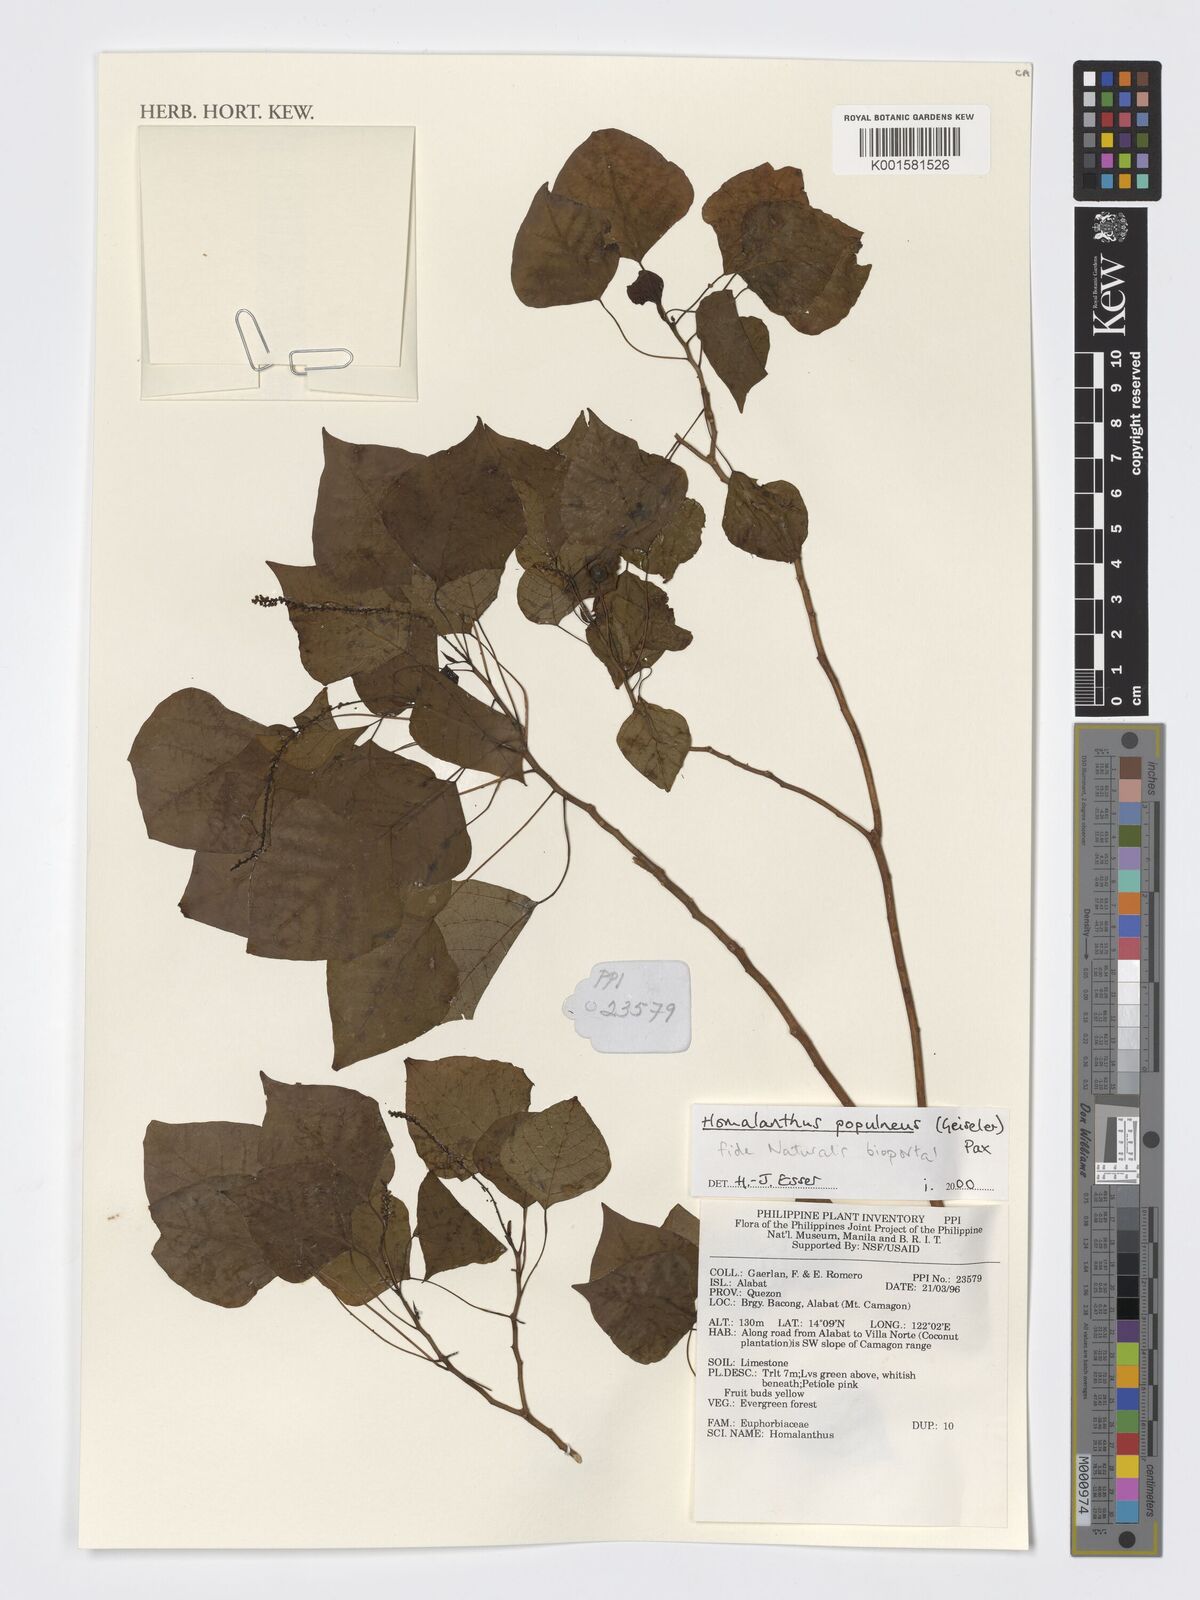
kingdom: Plantae
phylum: Tracheophyta
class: Magnoliopsida
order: Malpighiales
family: Euphorbiaceae
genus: Homalanthus
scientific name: Homalanthus populneus
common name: Spurge
